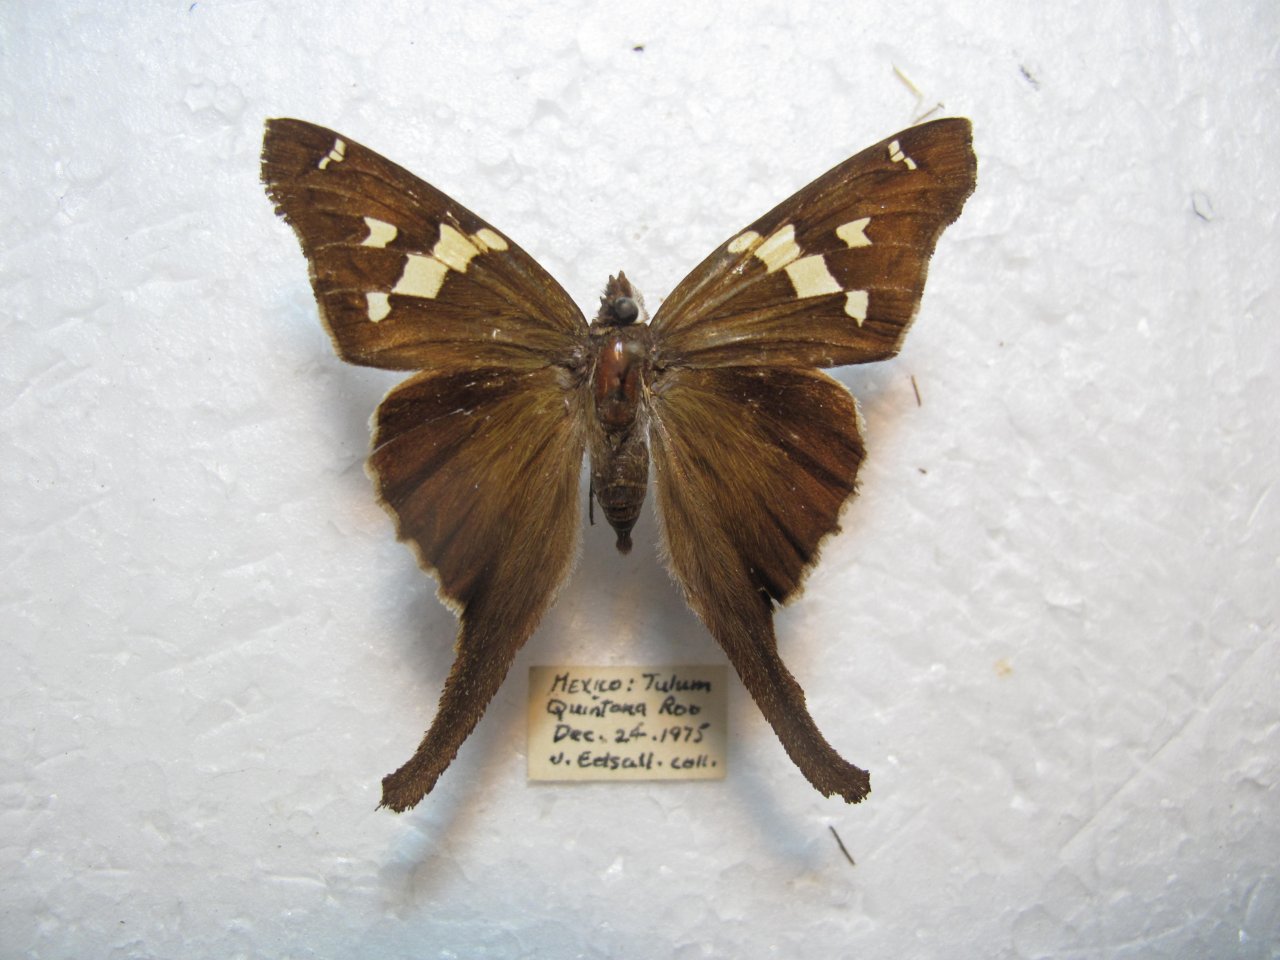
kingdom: Animalia
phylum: Arthropoda
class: Insecta
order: Lepidoptera
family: Hesperiidae
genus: Chioides
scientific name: Chioides zilpa
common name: Zilpa Longtail
